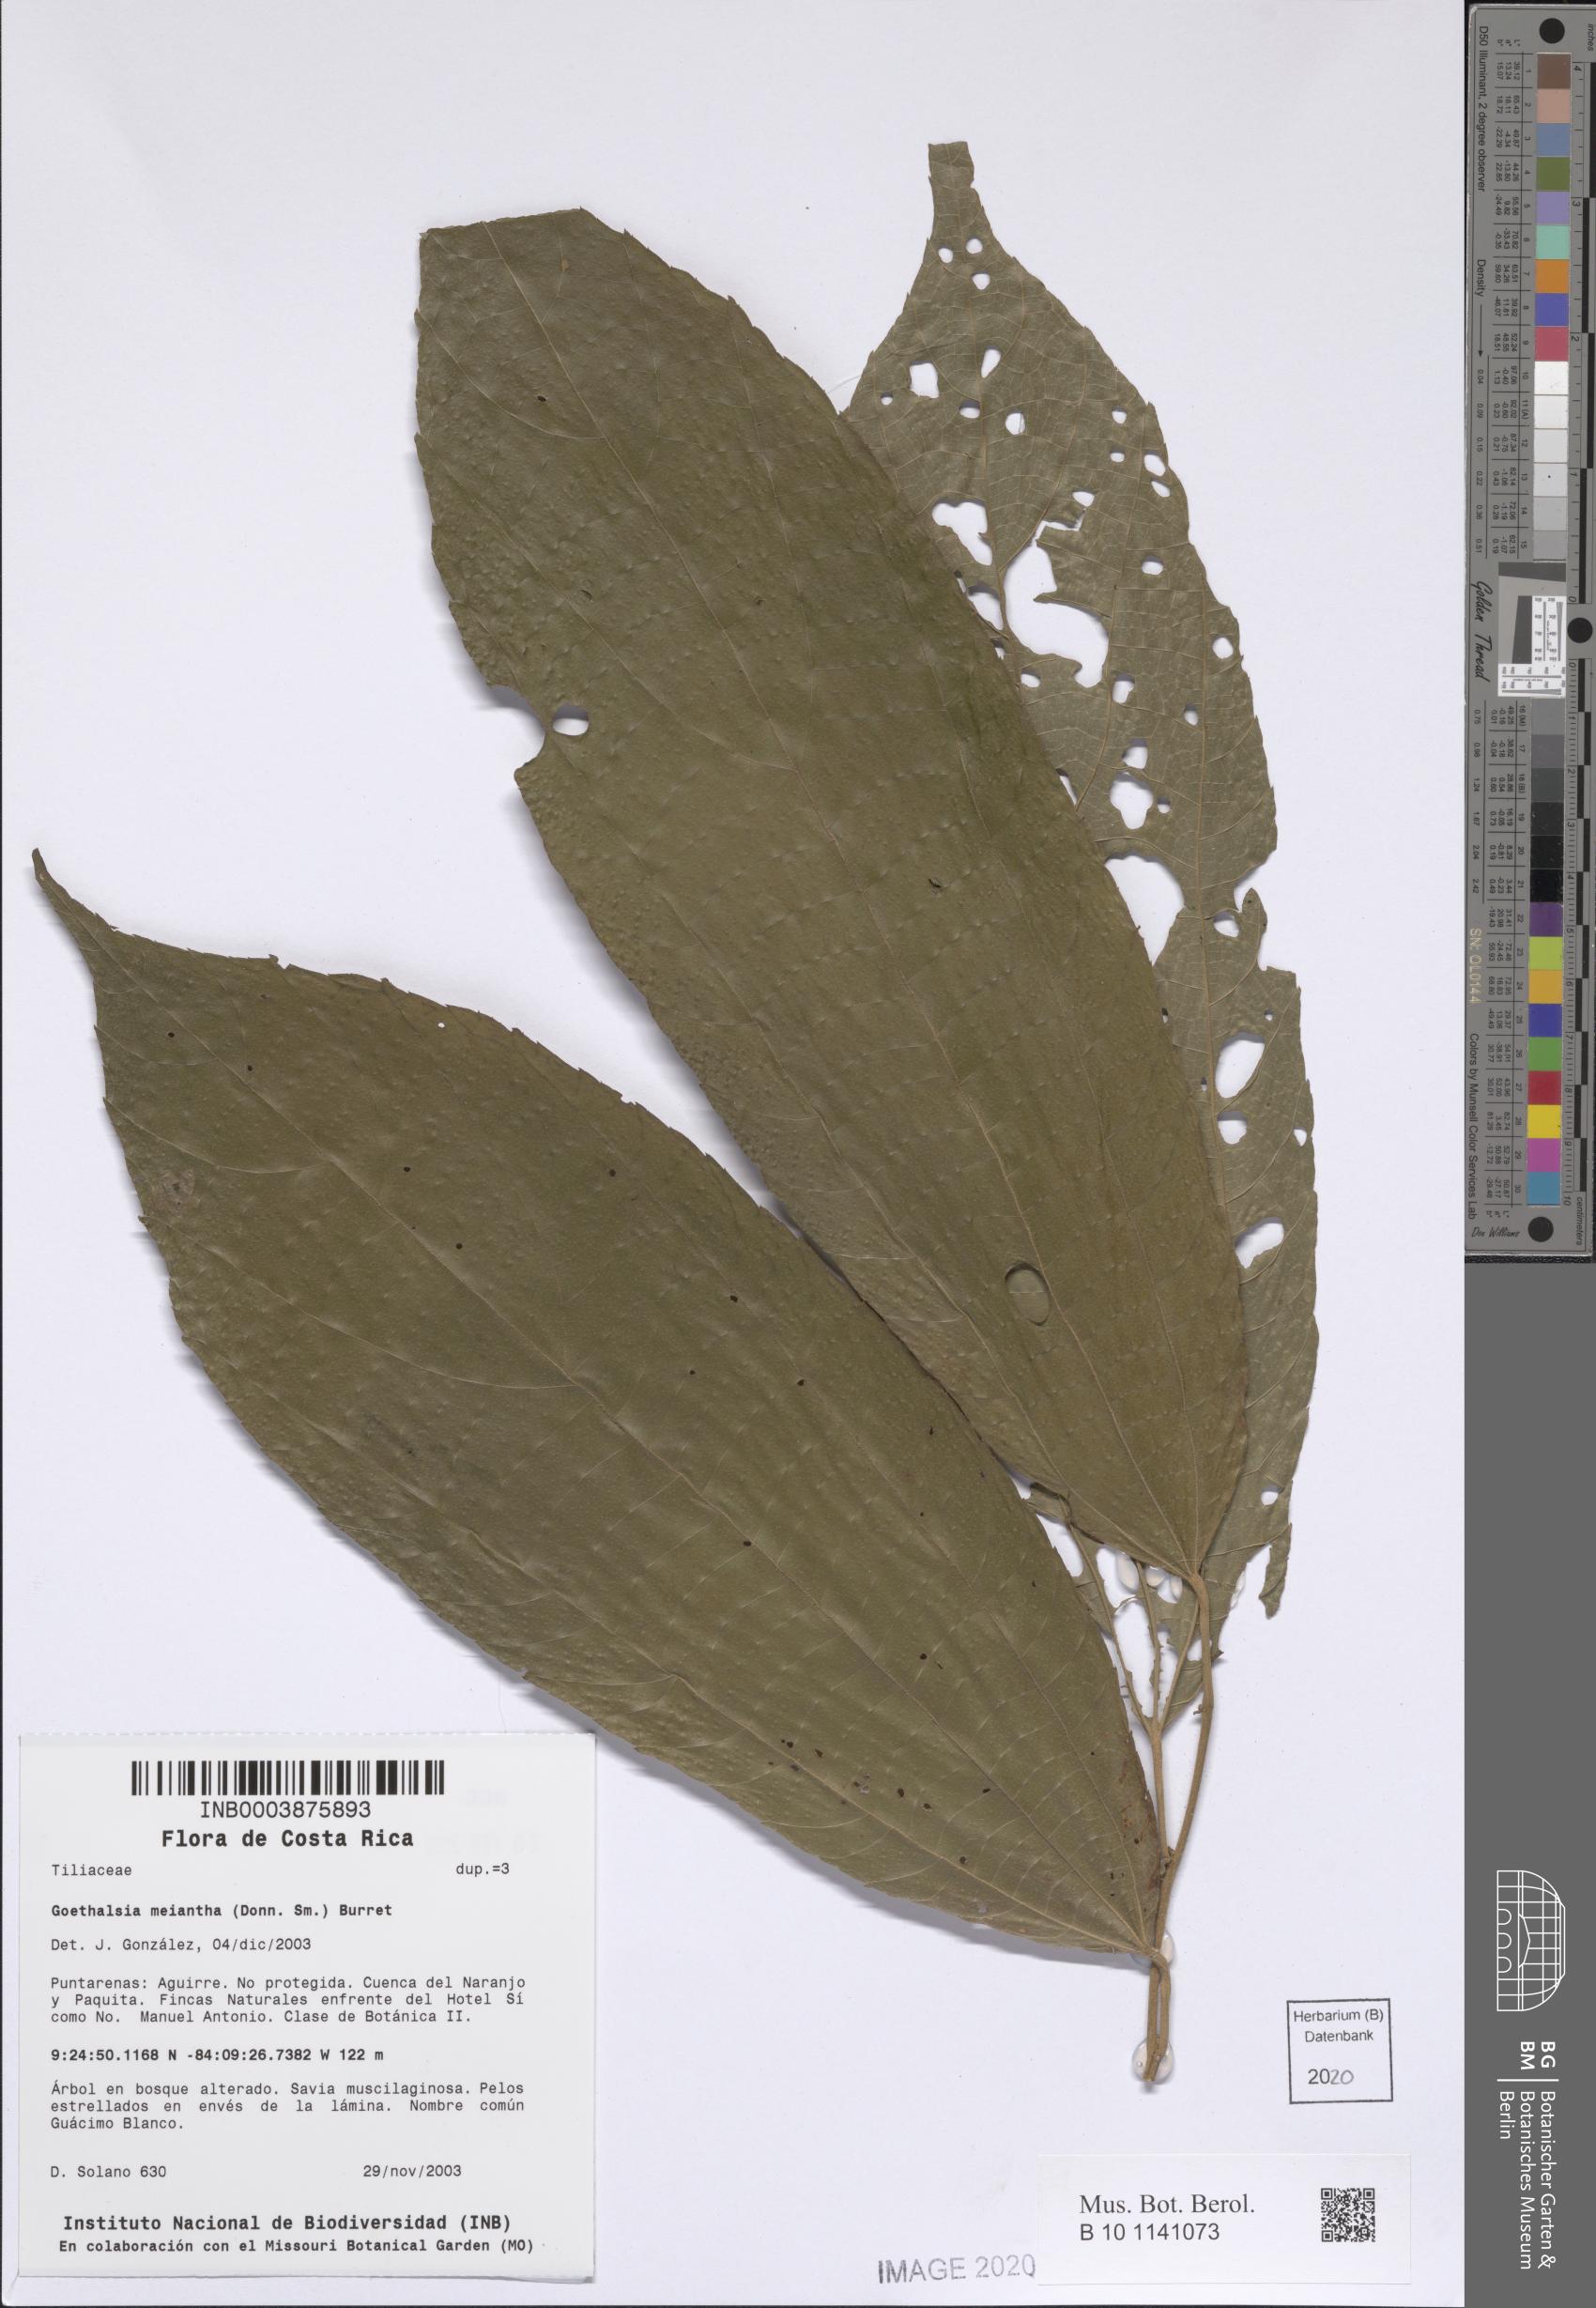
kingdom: Plantae
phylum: Tracheophyta
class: Magnoliopsida
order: Malvales
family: Malvaceae
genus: Goethalsia
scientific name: Goethalsia meiantha
